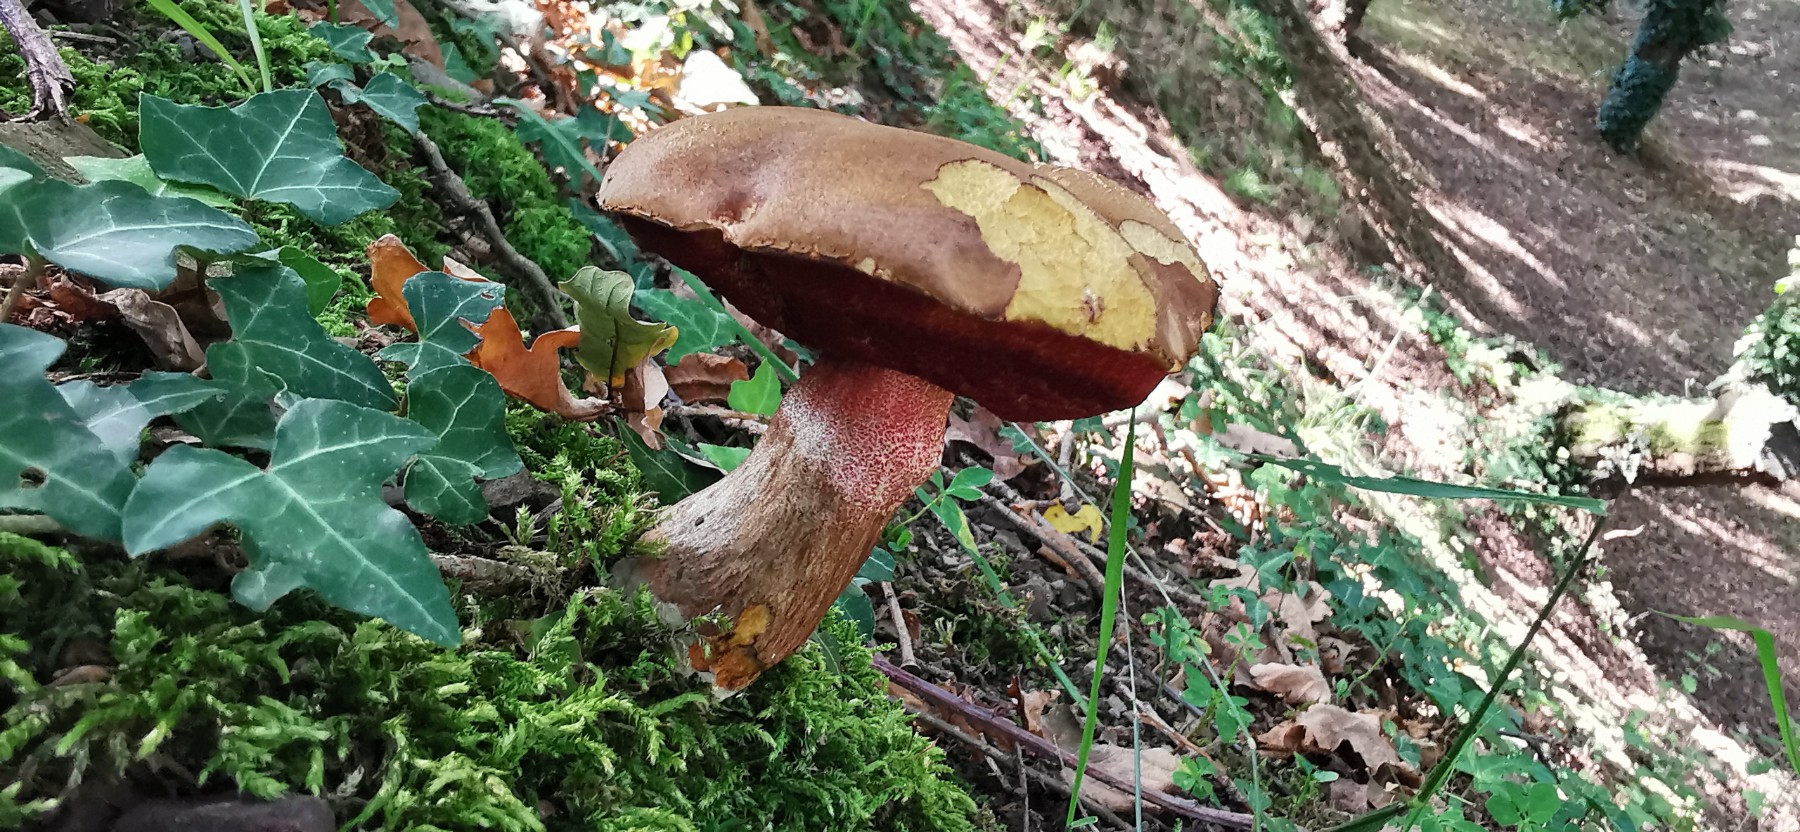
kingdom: Fungi
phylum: Basidiomycota
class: Agaricomycetes
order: Boletales
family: Boletaceae
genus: Neoboletus
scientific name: Neoboletus erythropus
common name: punktstokket indigorørhat
